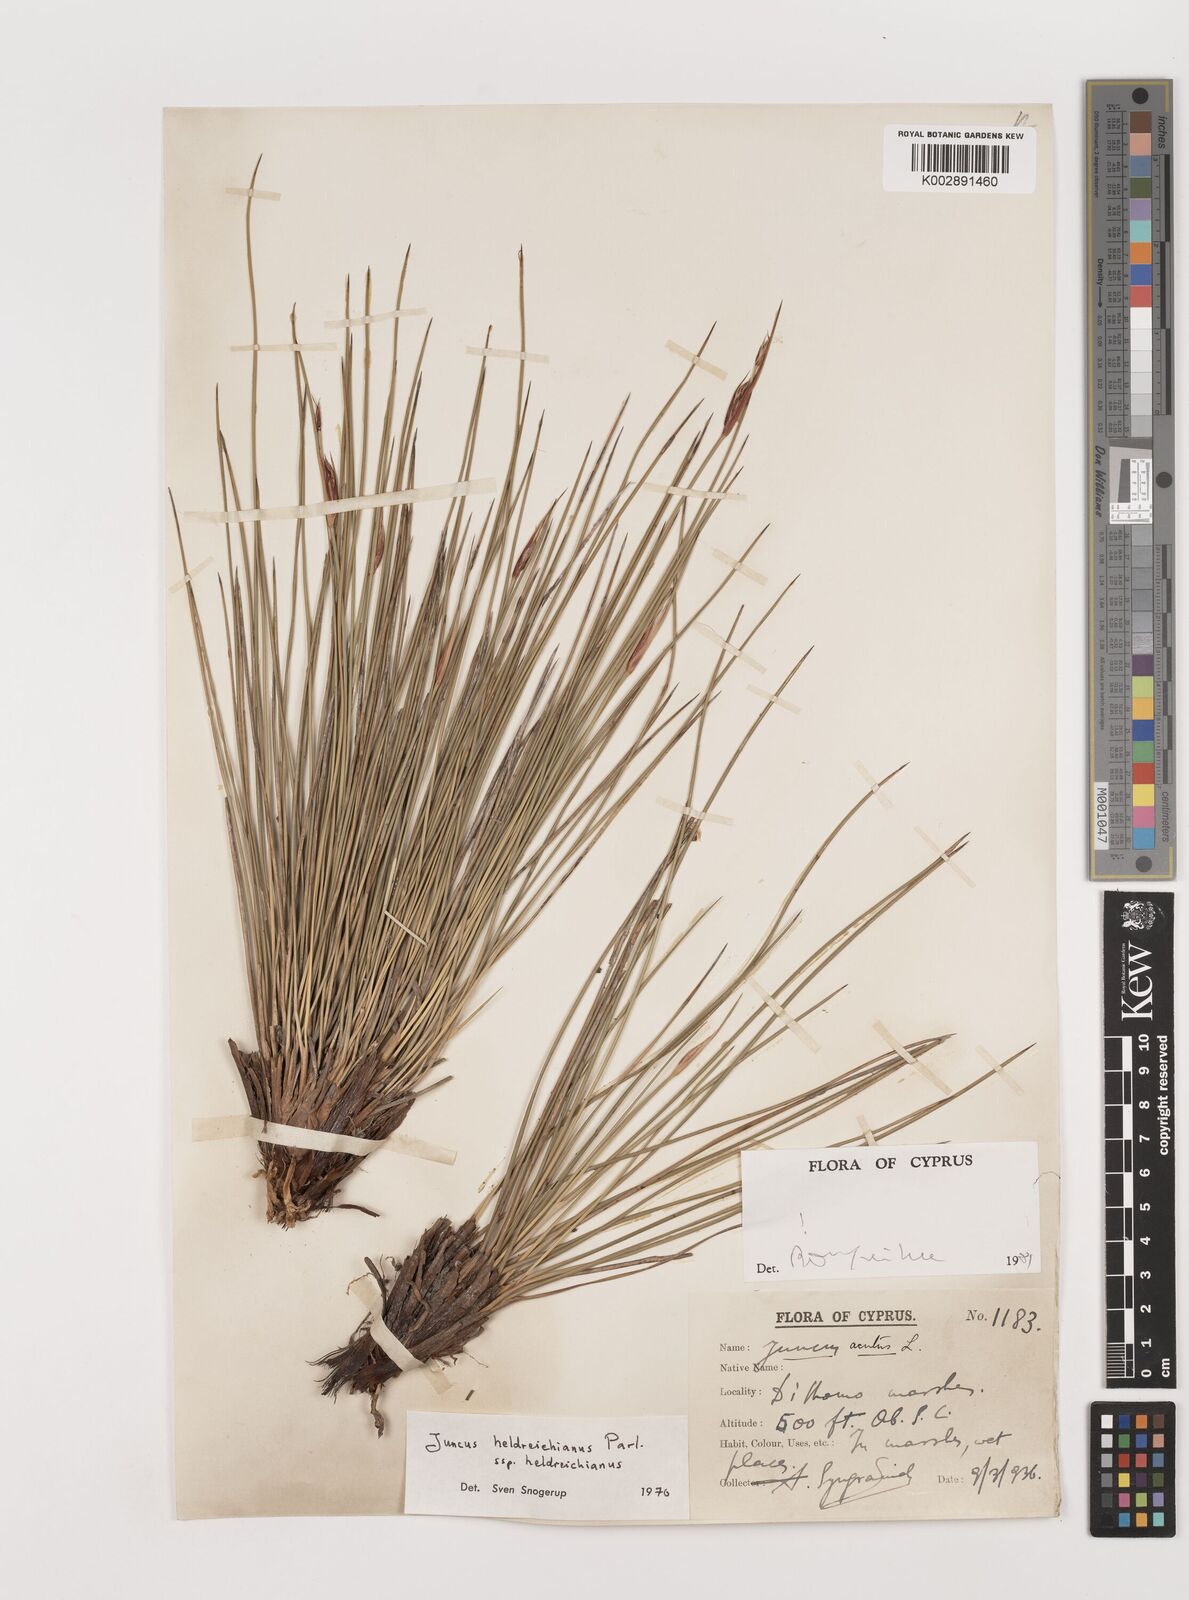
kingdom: Plantae
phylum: Tracheophyta
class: Liliopsida
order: Poales
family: Juncaceae
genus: Juncus
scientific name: Juncus heldreichianus
